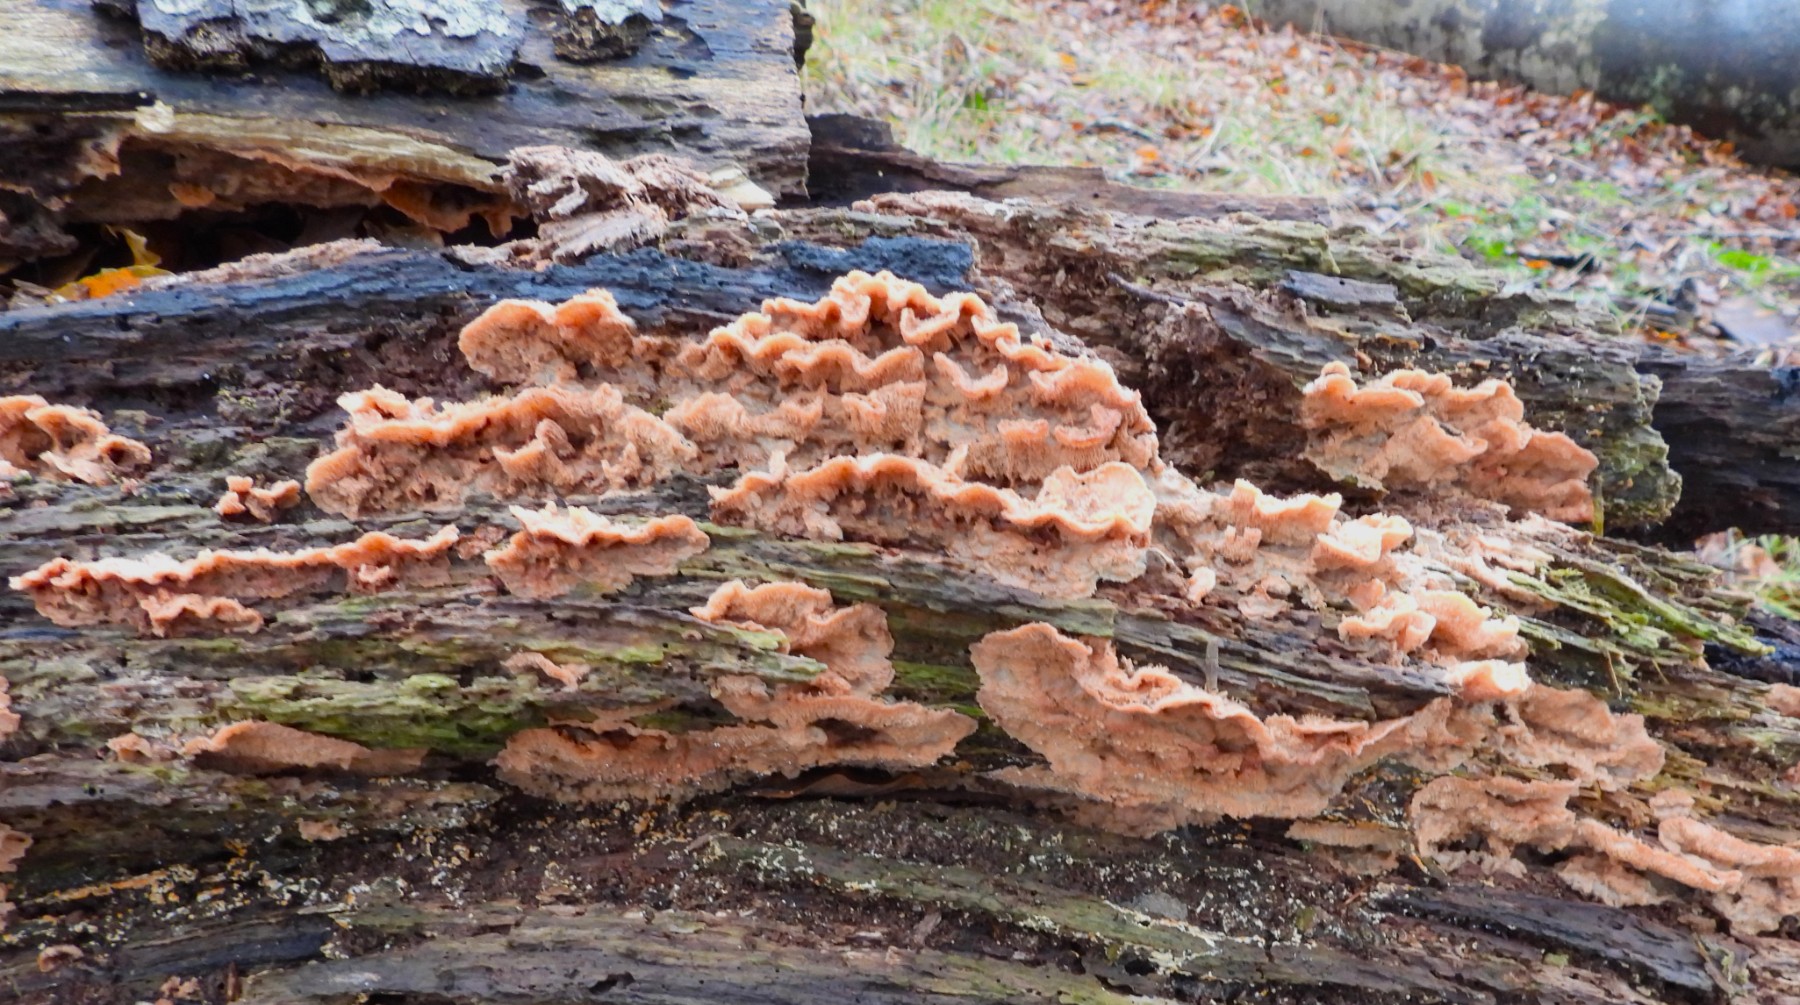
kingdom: Fungi
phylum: Basidiomycota
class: Agaricomycetes
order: Polyporales
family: Meruliaceae
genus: Phlebia
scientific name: Phlebia tremellosa
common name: bævrende åresvamp
